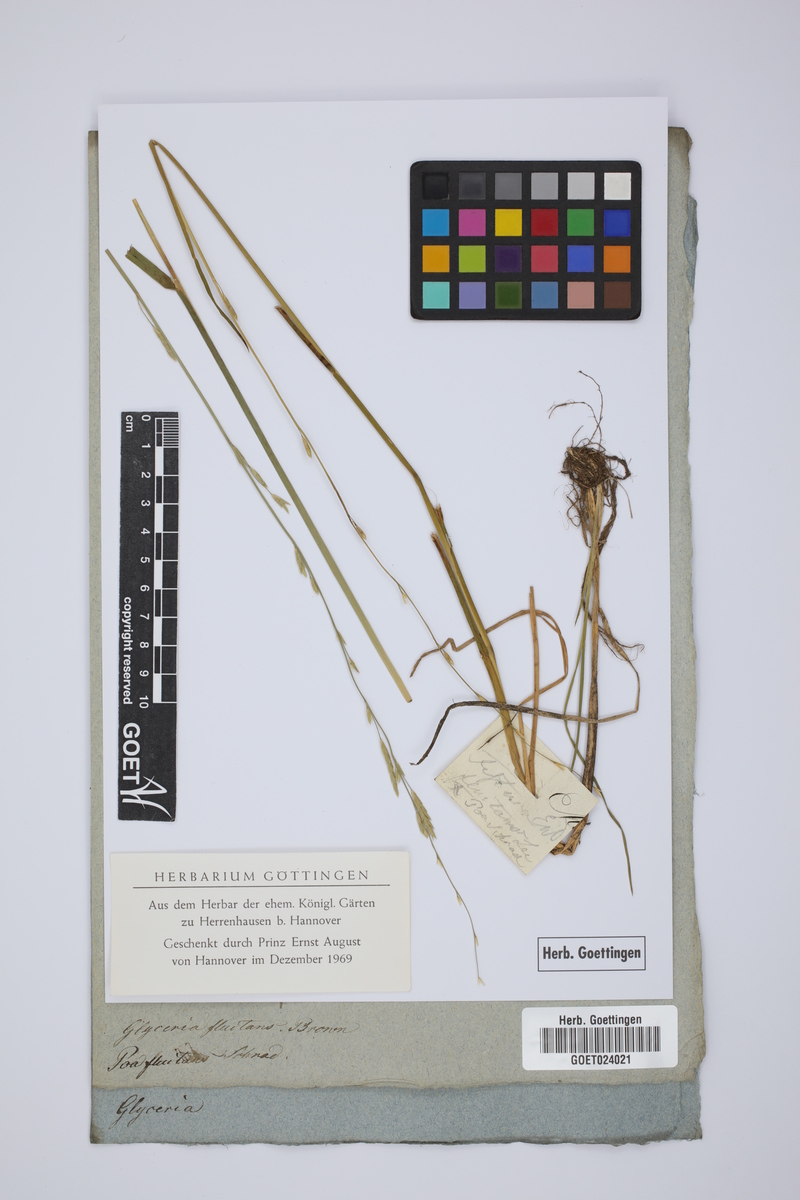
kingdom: Plantae
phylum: Tracheophyta
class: Liliopsida
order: Poales
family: Poaceae
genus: Glyceria
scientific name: Glyceria fluitans
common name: Floating sweet-grass
